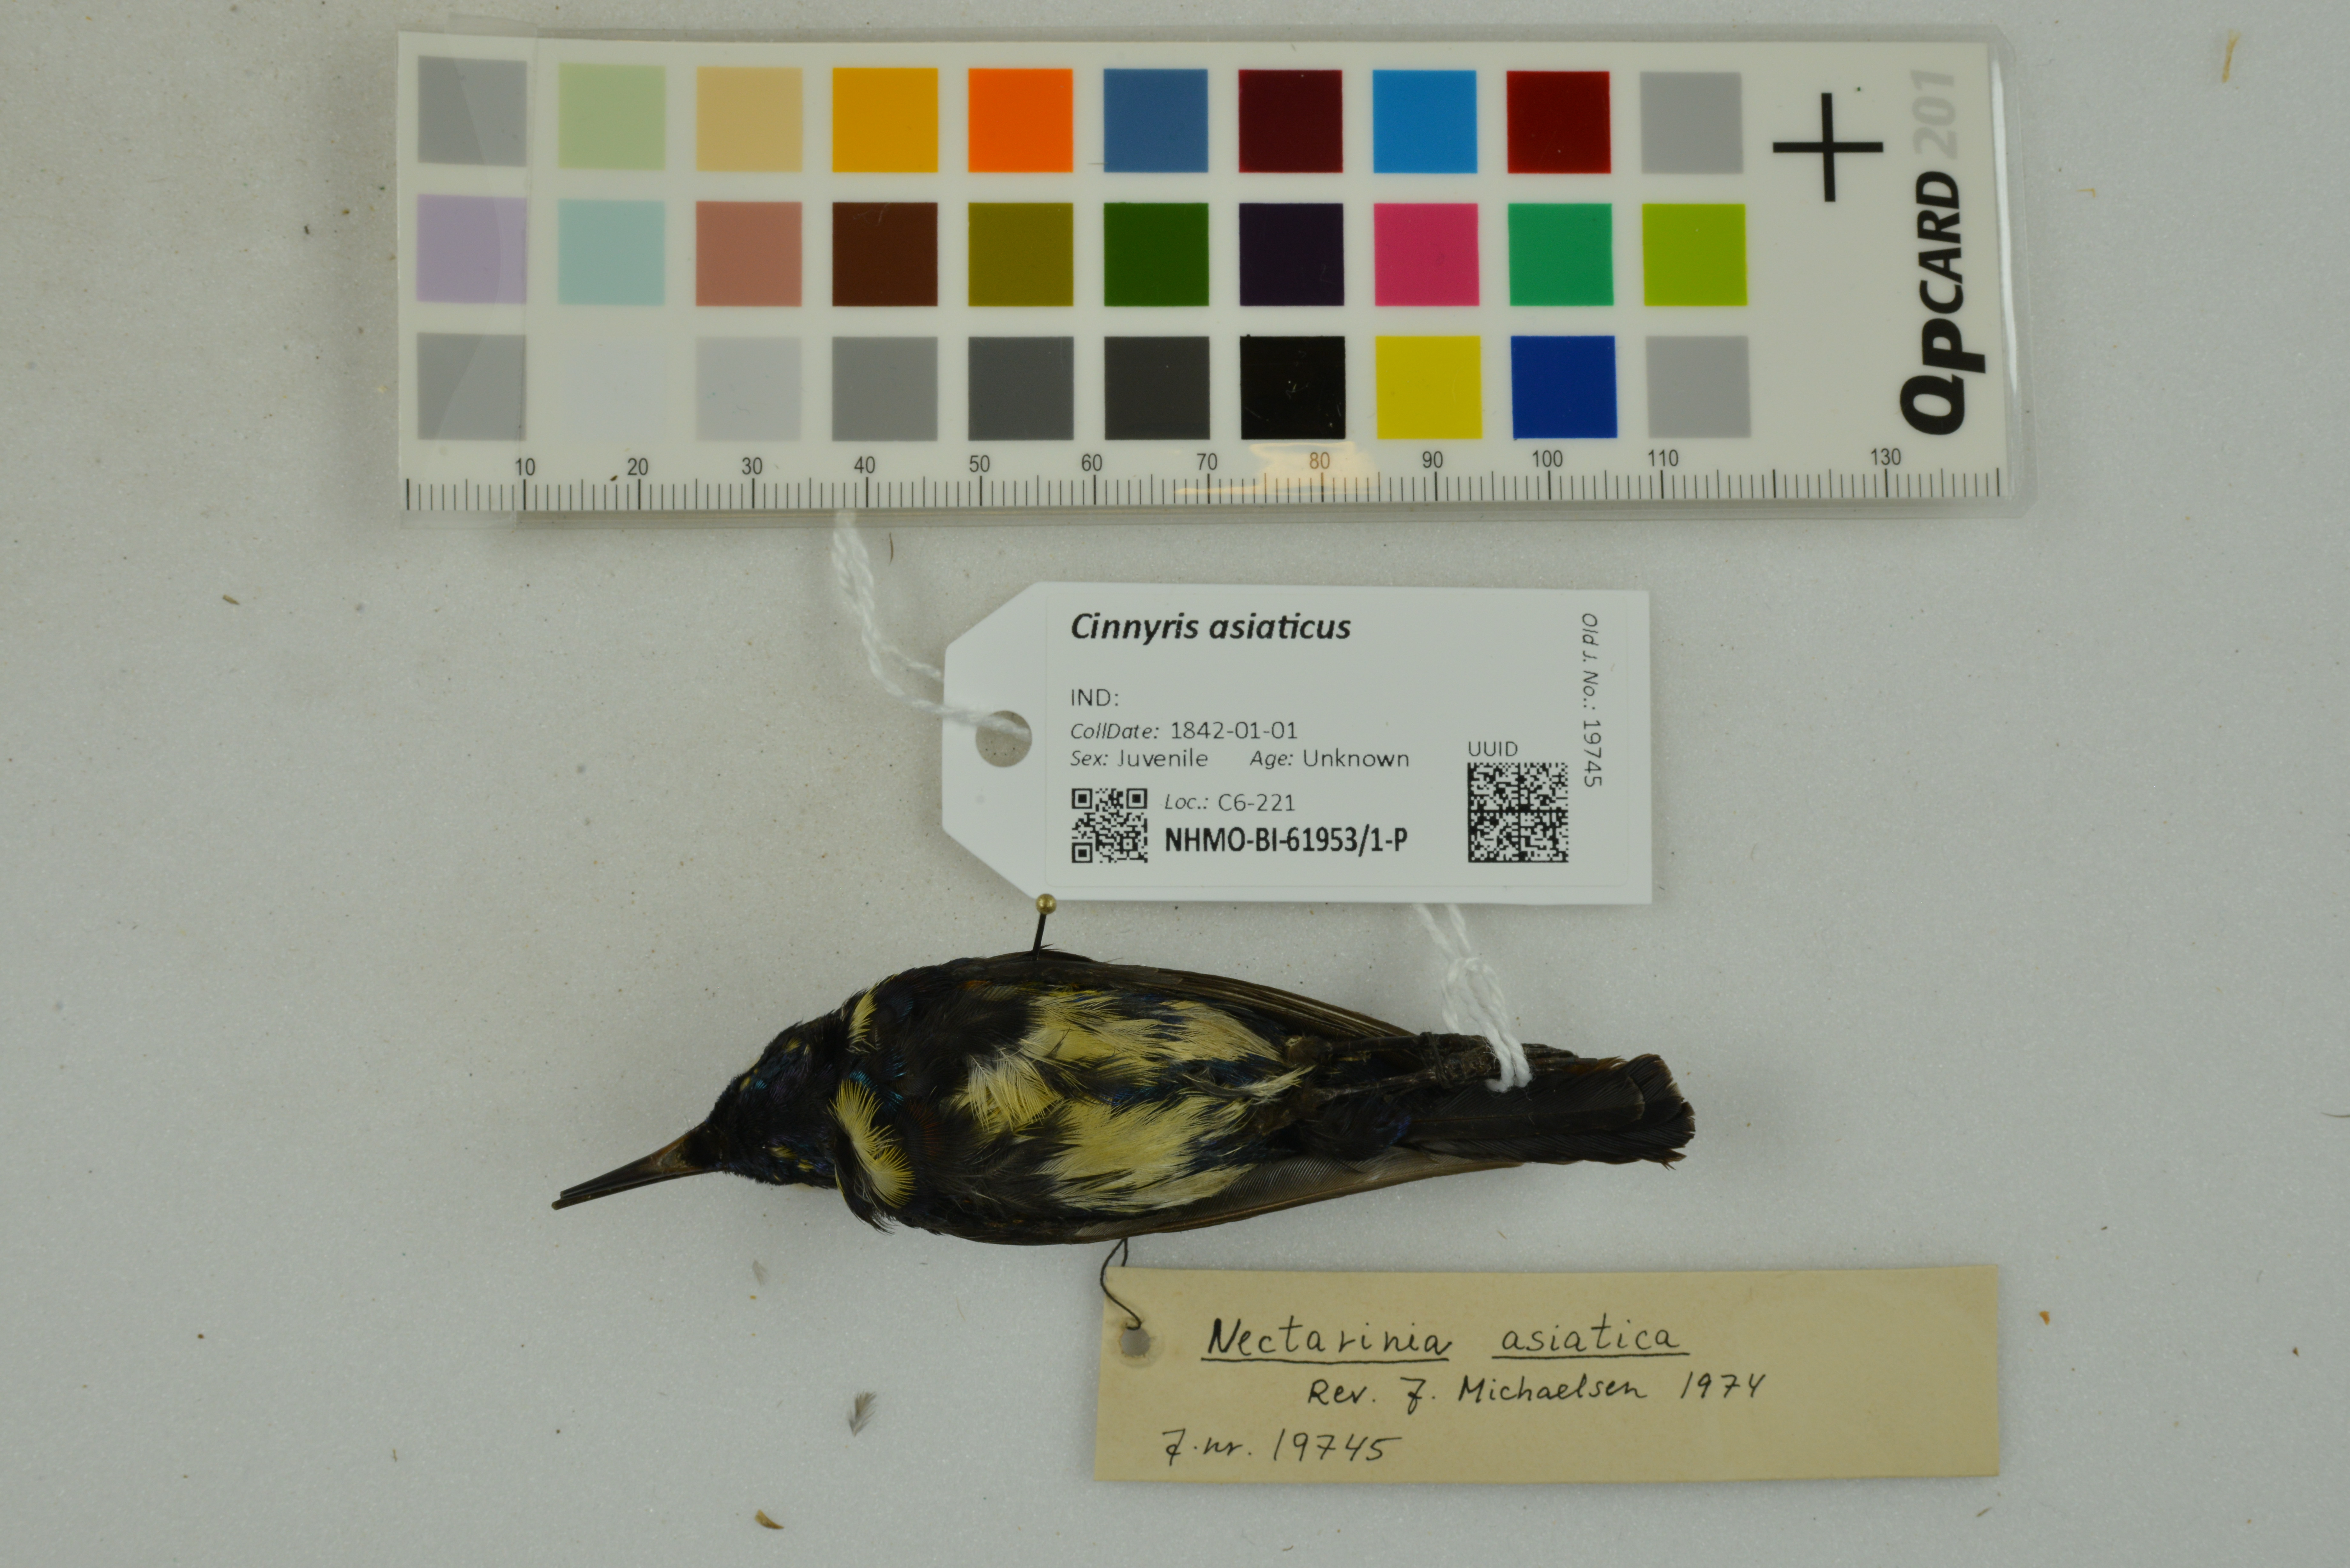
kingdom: Animalia
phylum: Chordata
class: Aves
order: Passeriformes
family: Nectariniidae
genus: Cinnyris
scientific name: Cinnyris asiaticus
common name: Purple sunbird
